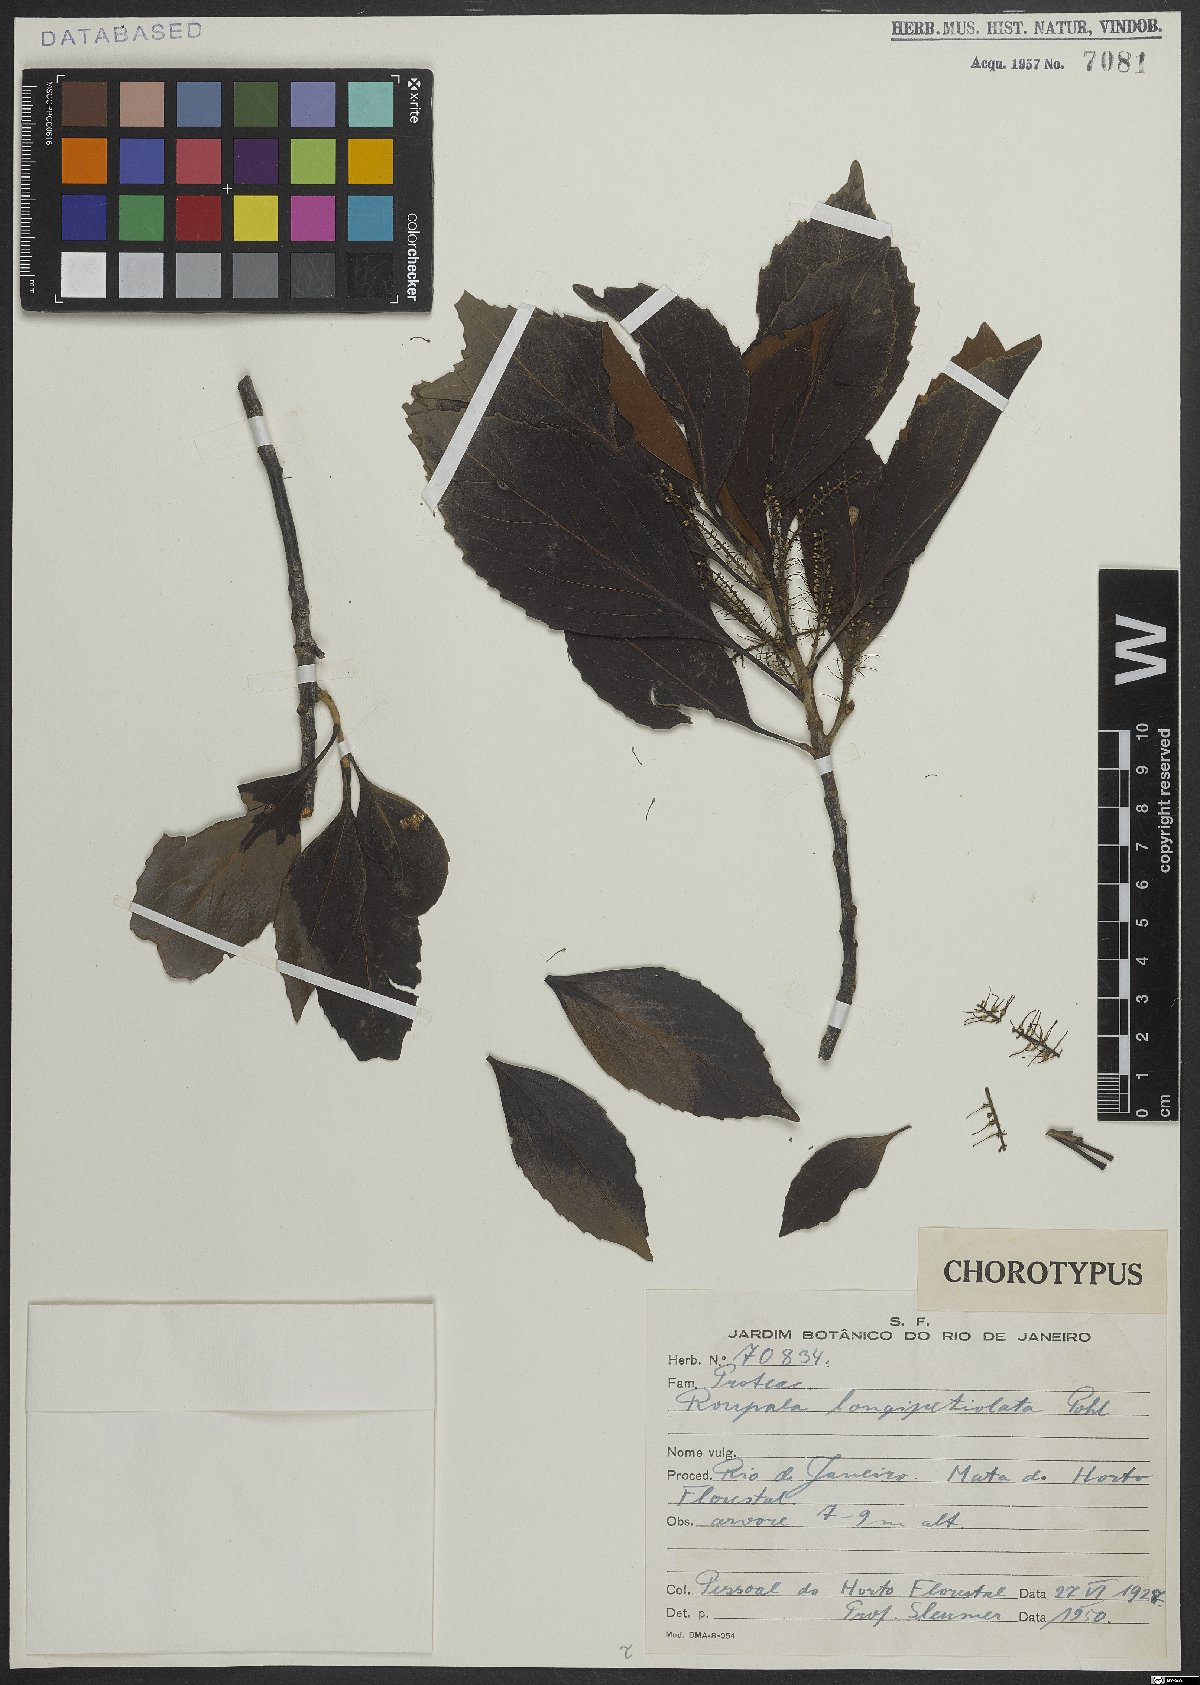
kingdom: Plantae
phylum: Tracheophyta
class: Magnoliopsida
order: Proteales
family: Proteaceae
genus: Roupala
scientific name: Roupala longepetiolata
